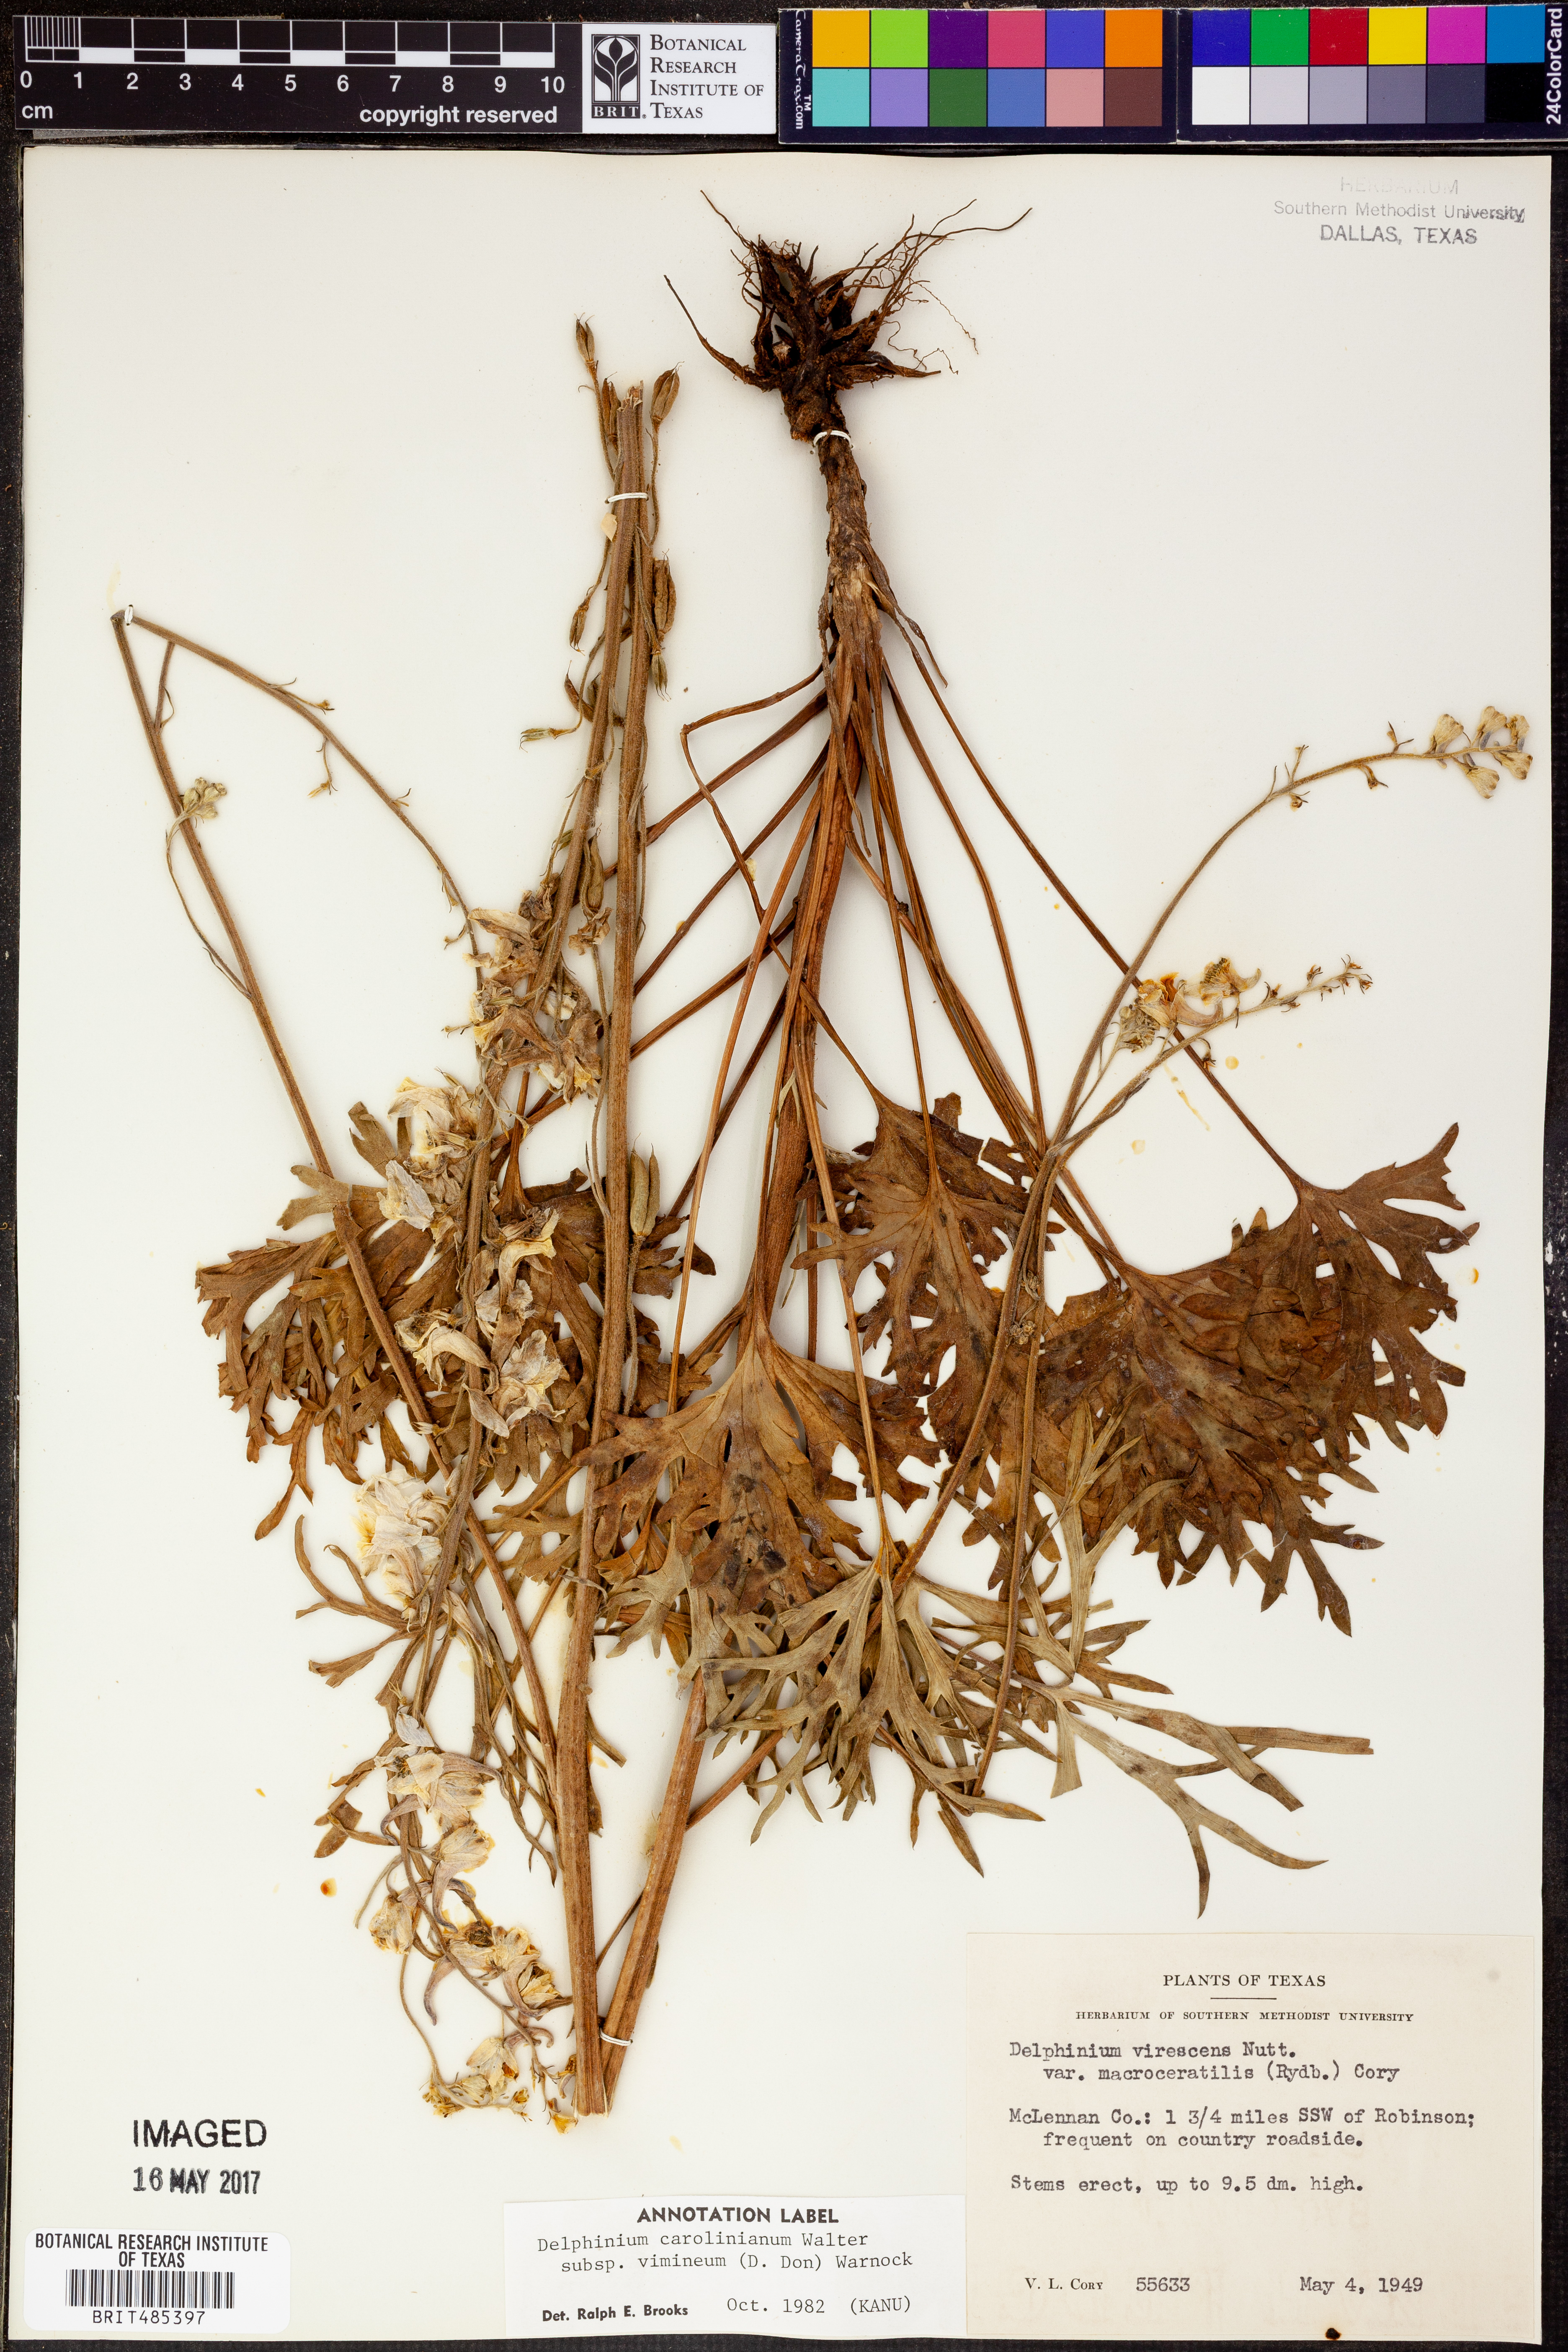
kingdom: Plantae
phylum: Tracheophyta
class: Magnoliopsida
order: Ranunculales
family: Ranunculaceae
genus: Delphinium
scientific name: Delphinium carolinianum
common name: Carolina larkspur
